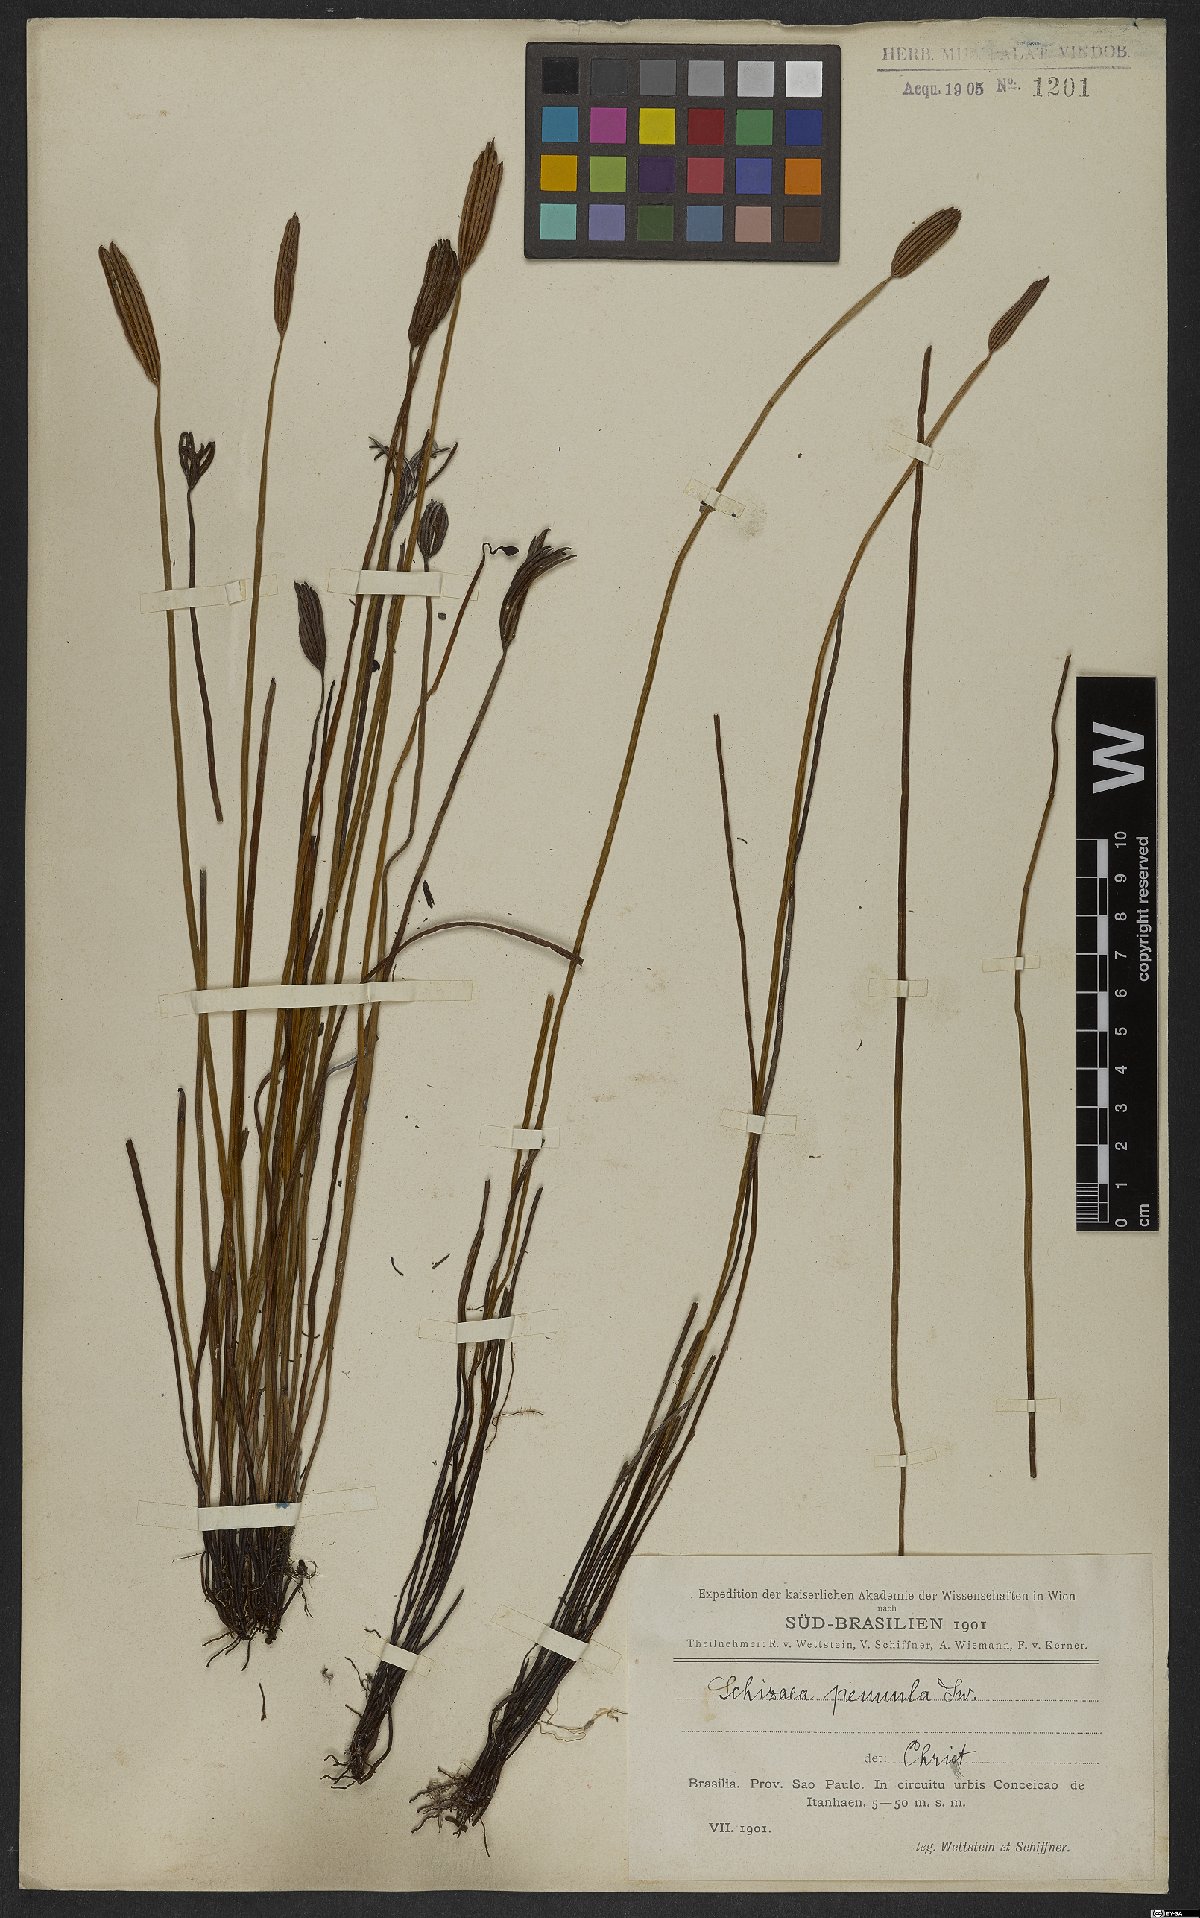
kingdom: Plantae
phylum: Tracheophyta
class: Polypodiopsida
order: Schizaeales
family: Schizaeaceae
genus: Actinostachys
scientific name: Actinostachys pennula
